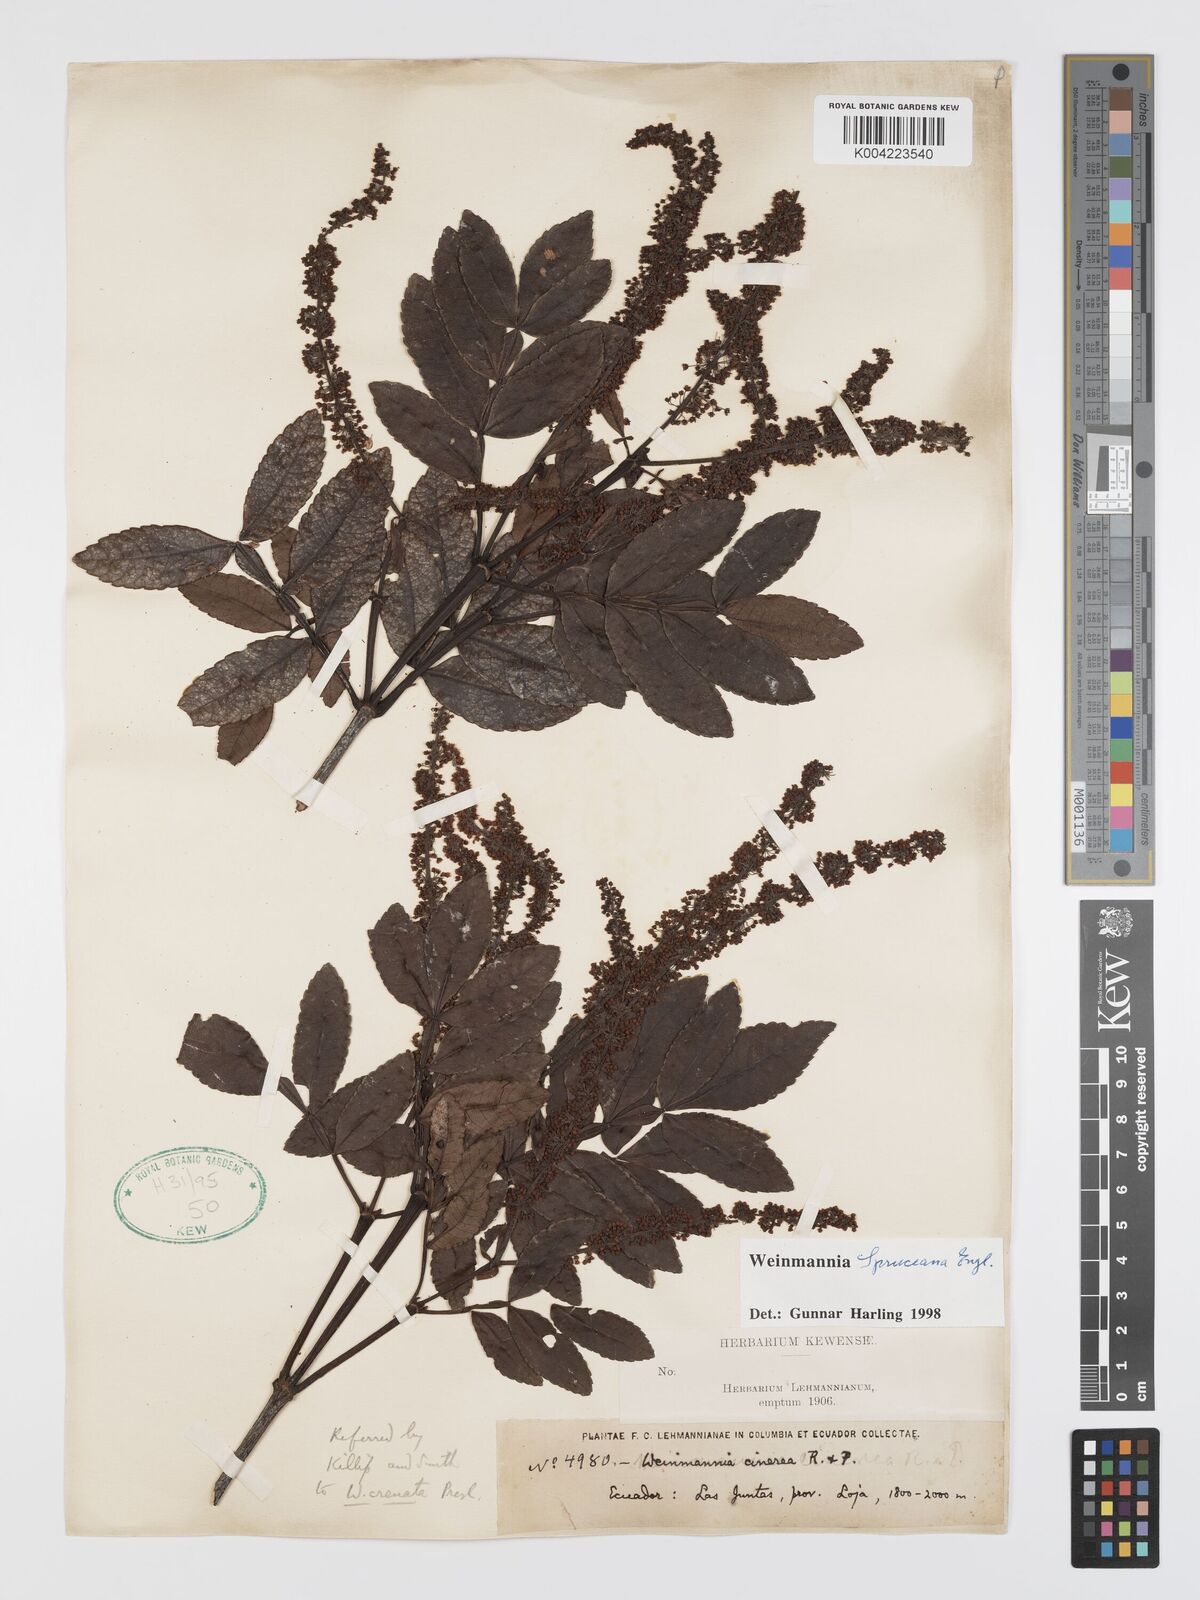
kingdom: Plantae
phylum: Tracheophyta
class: Magnoliopsida
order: Oxalidales
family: Cunoniaceae
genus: Weinmannia
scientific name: Weinmannia spruceana
